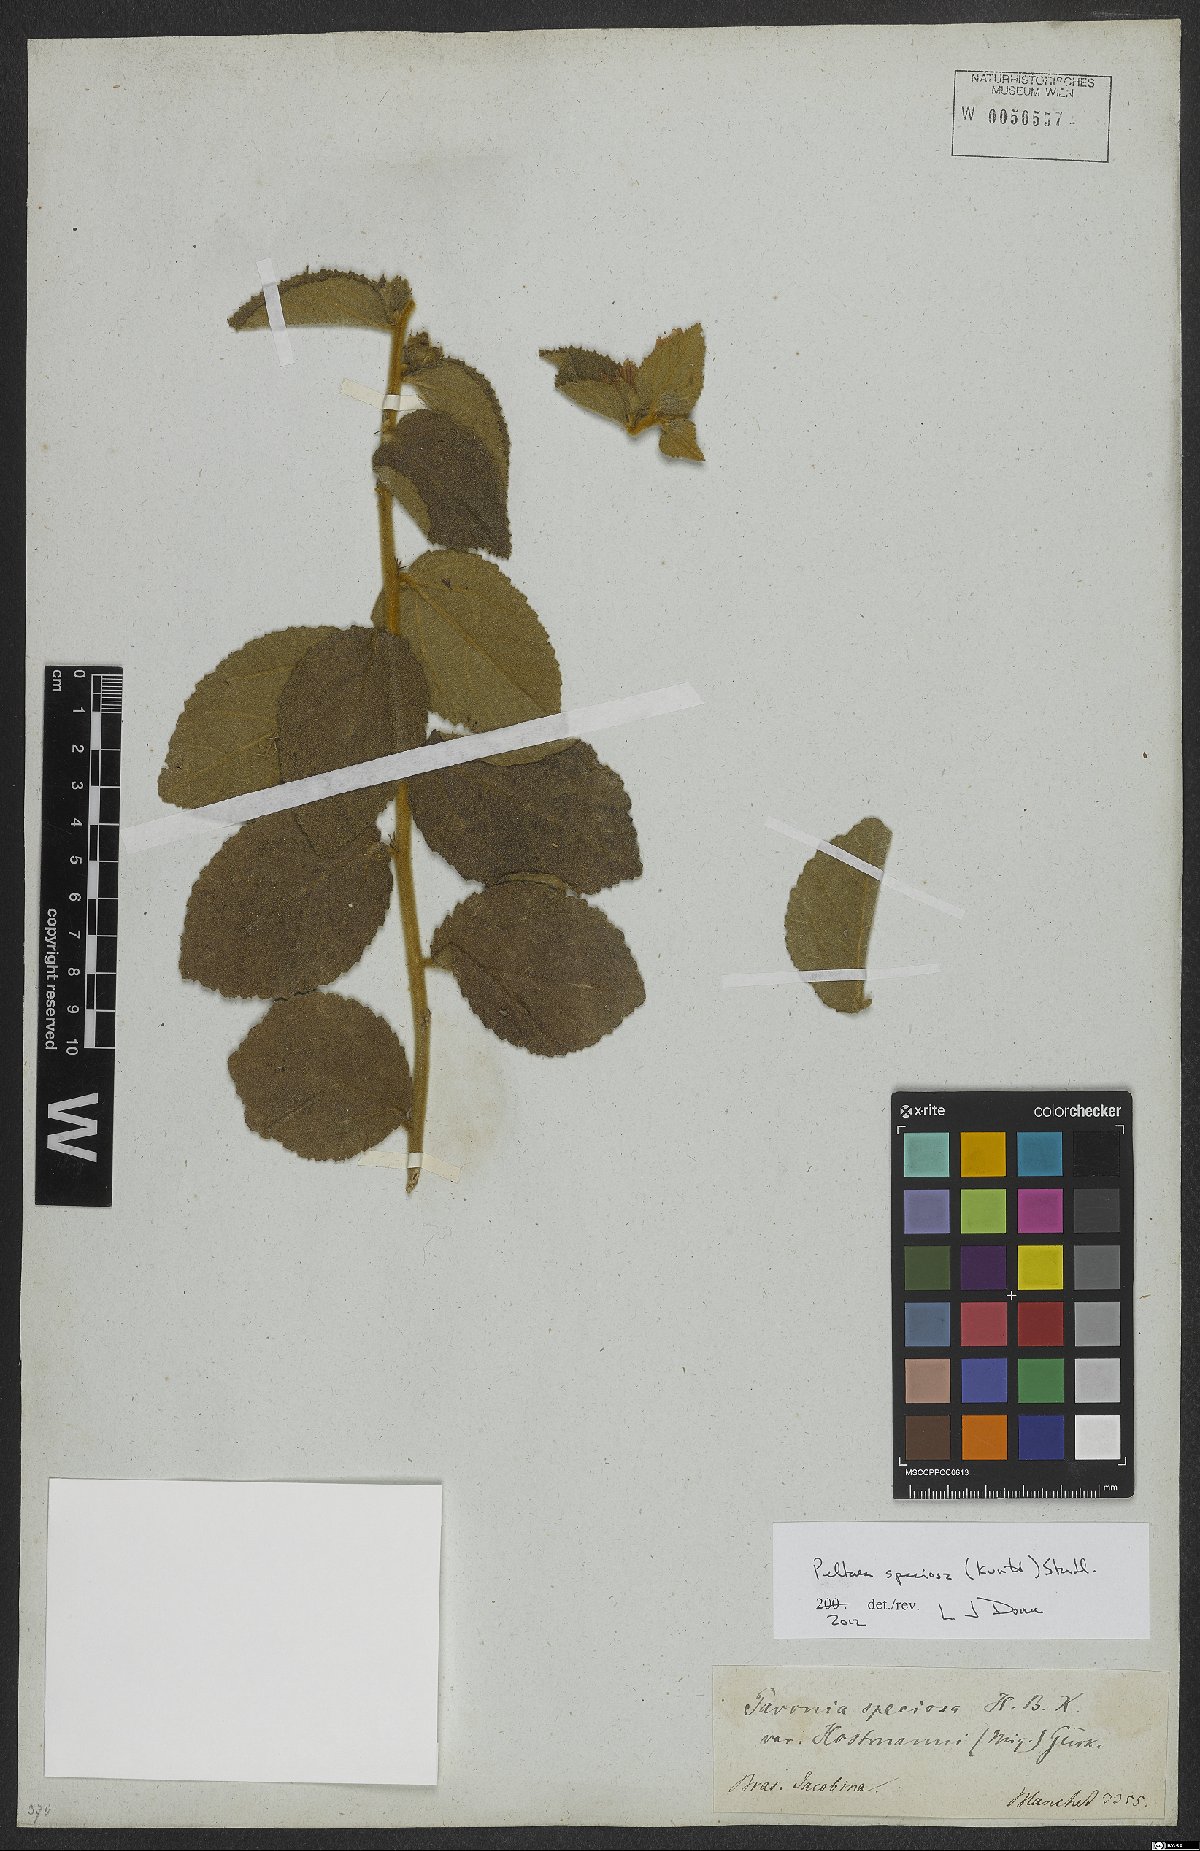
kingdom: Plantae
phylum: Tracheophyta
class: Magnoliopsida
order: Malvales
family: Malvaceae
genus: Peltaea
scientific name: Peltaea speciosa
